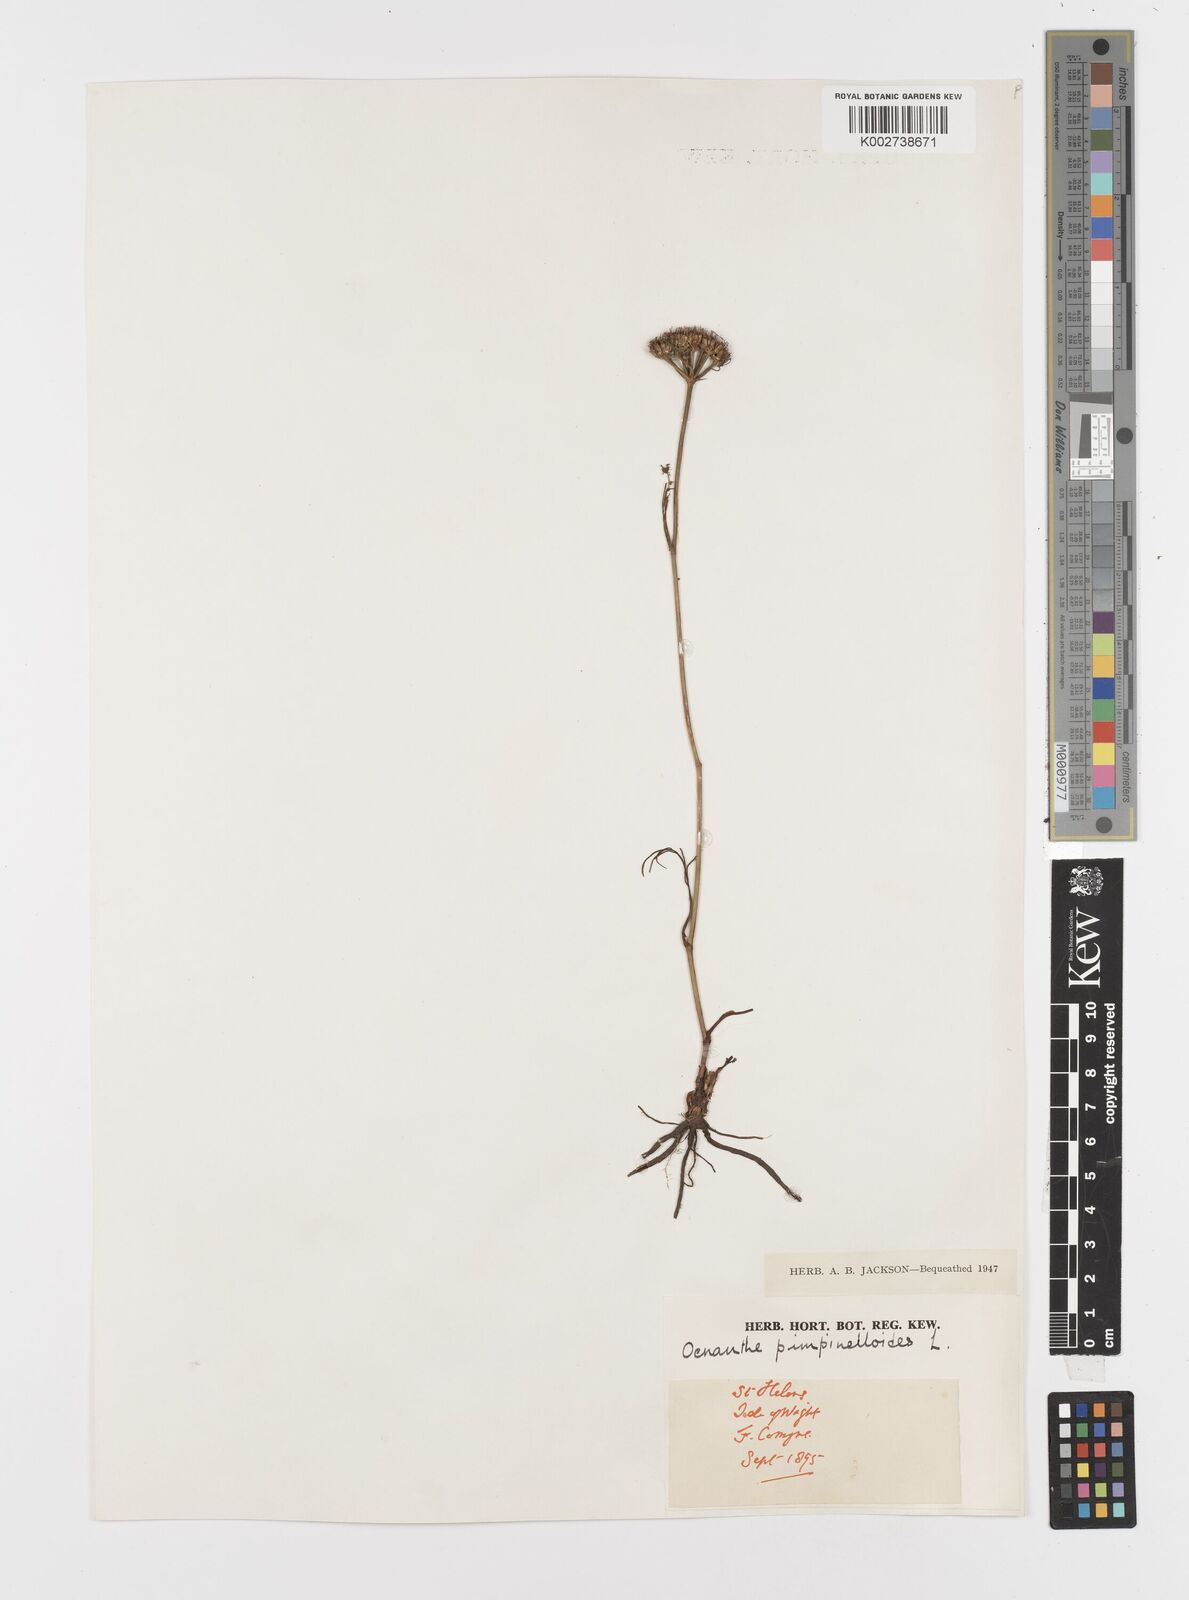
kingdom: Plantae
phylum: Tracheophyta
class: Magnoliopsida
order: Apiales
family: Apiaceae
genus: Oenanthe
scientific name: Oenanthe pimpinelloides
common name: Corky-fruited water-dropwort
